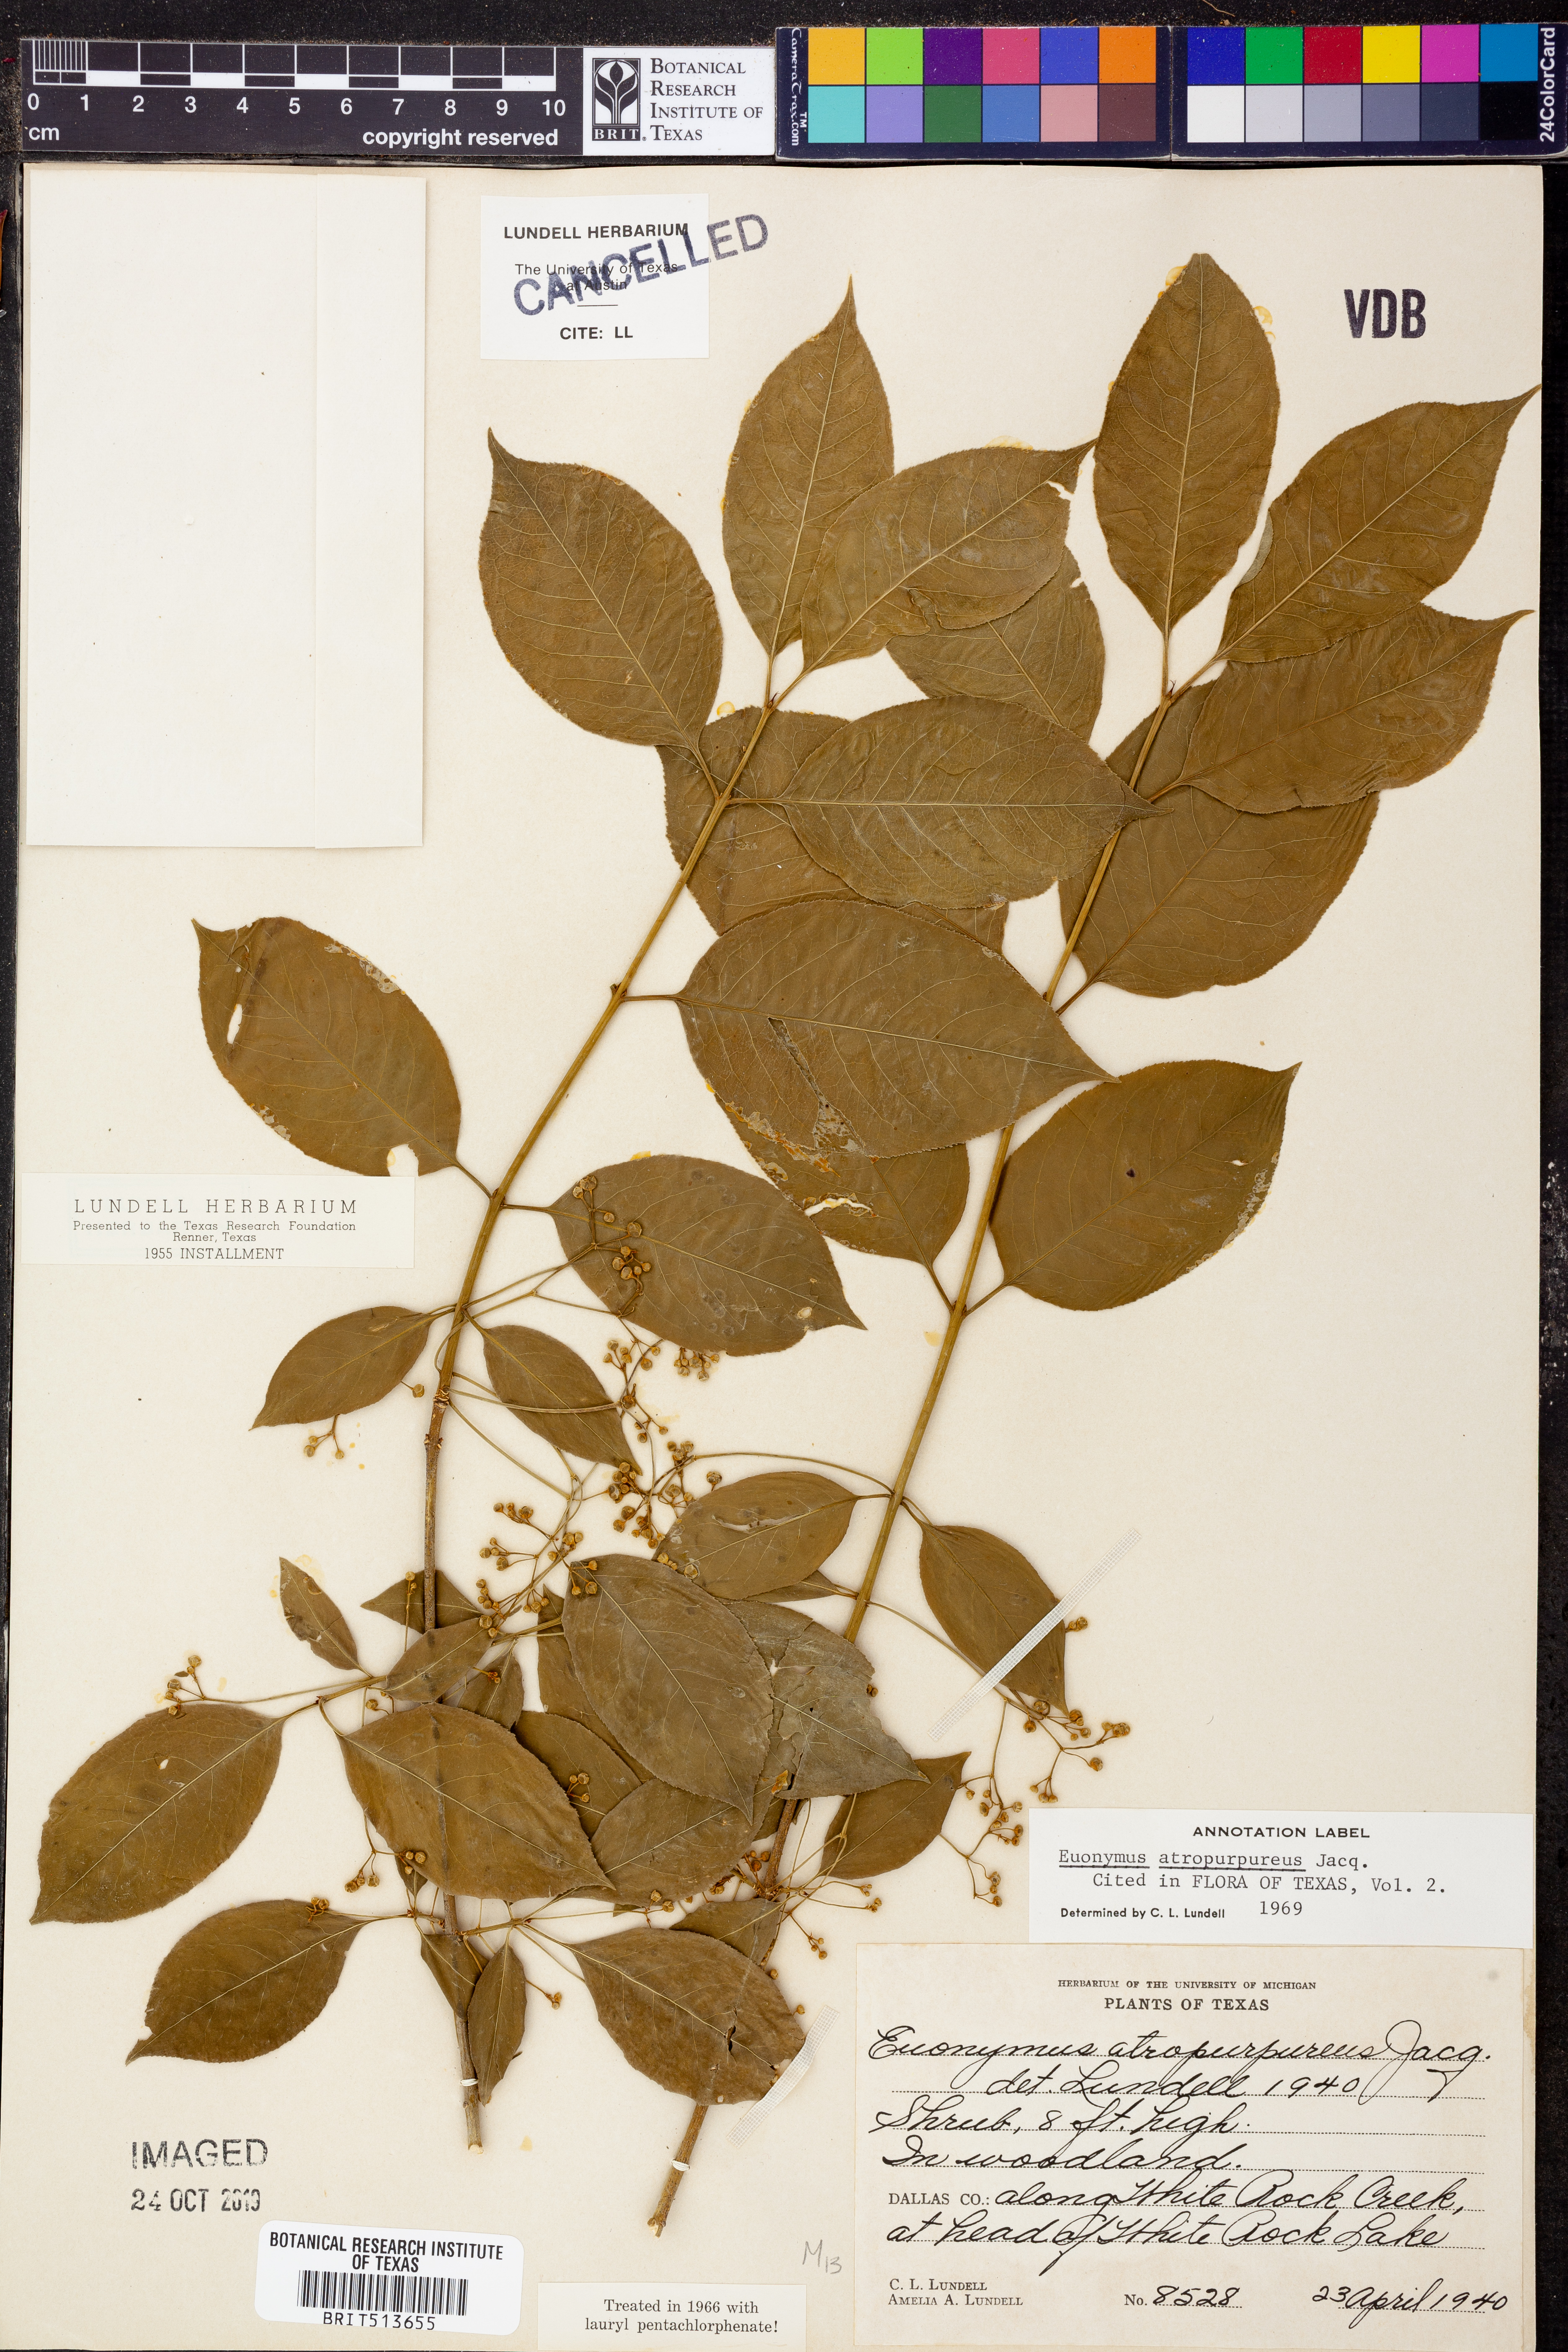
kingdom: Plantae
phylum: Tracheophyta
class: Magnoliopsida
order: Celastrales
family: Celastraceae
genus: Euonymus
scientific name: Euonymus atropurpureus
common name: Eastern wahoo
